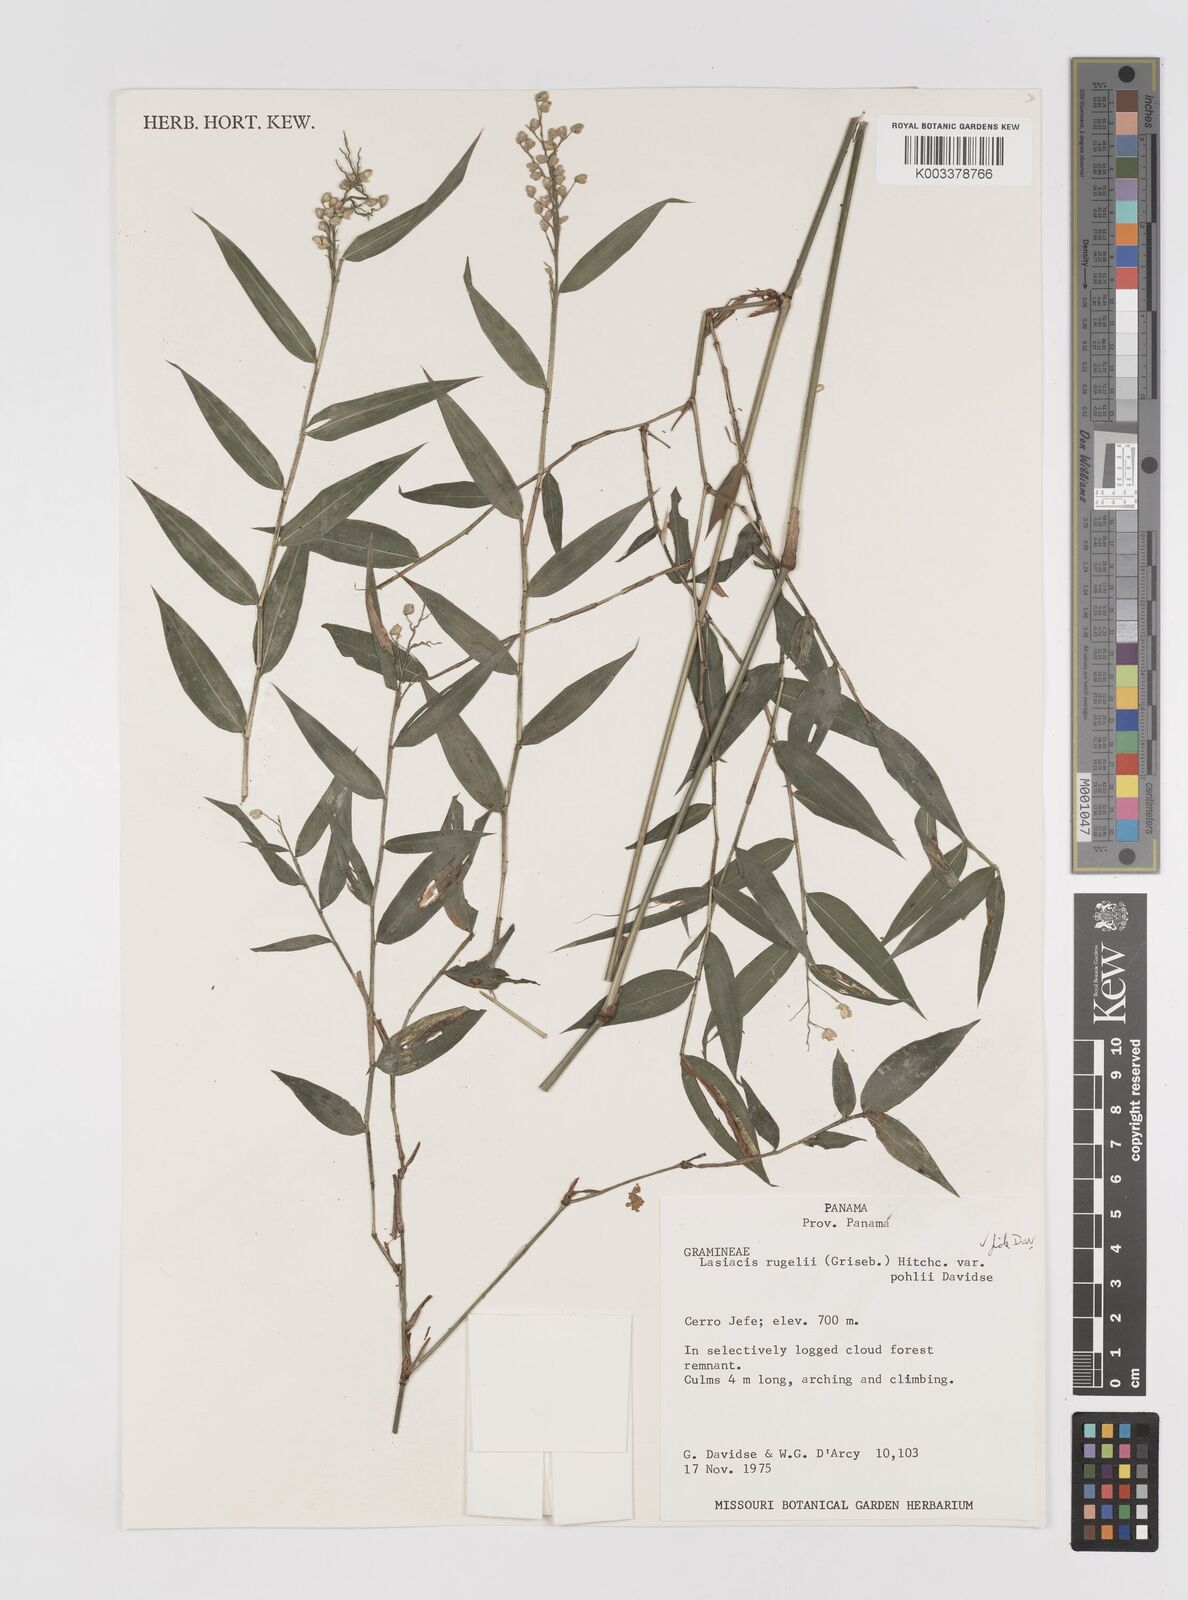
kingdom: Plantae
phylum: Tracheophyta
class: Liliopsida
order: Poales
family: Poaceae
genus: Lasiacis
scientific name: Lasiacis rugelii
